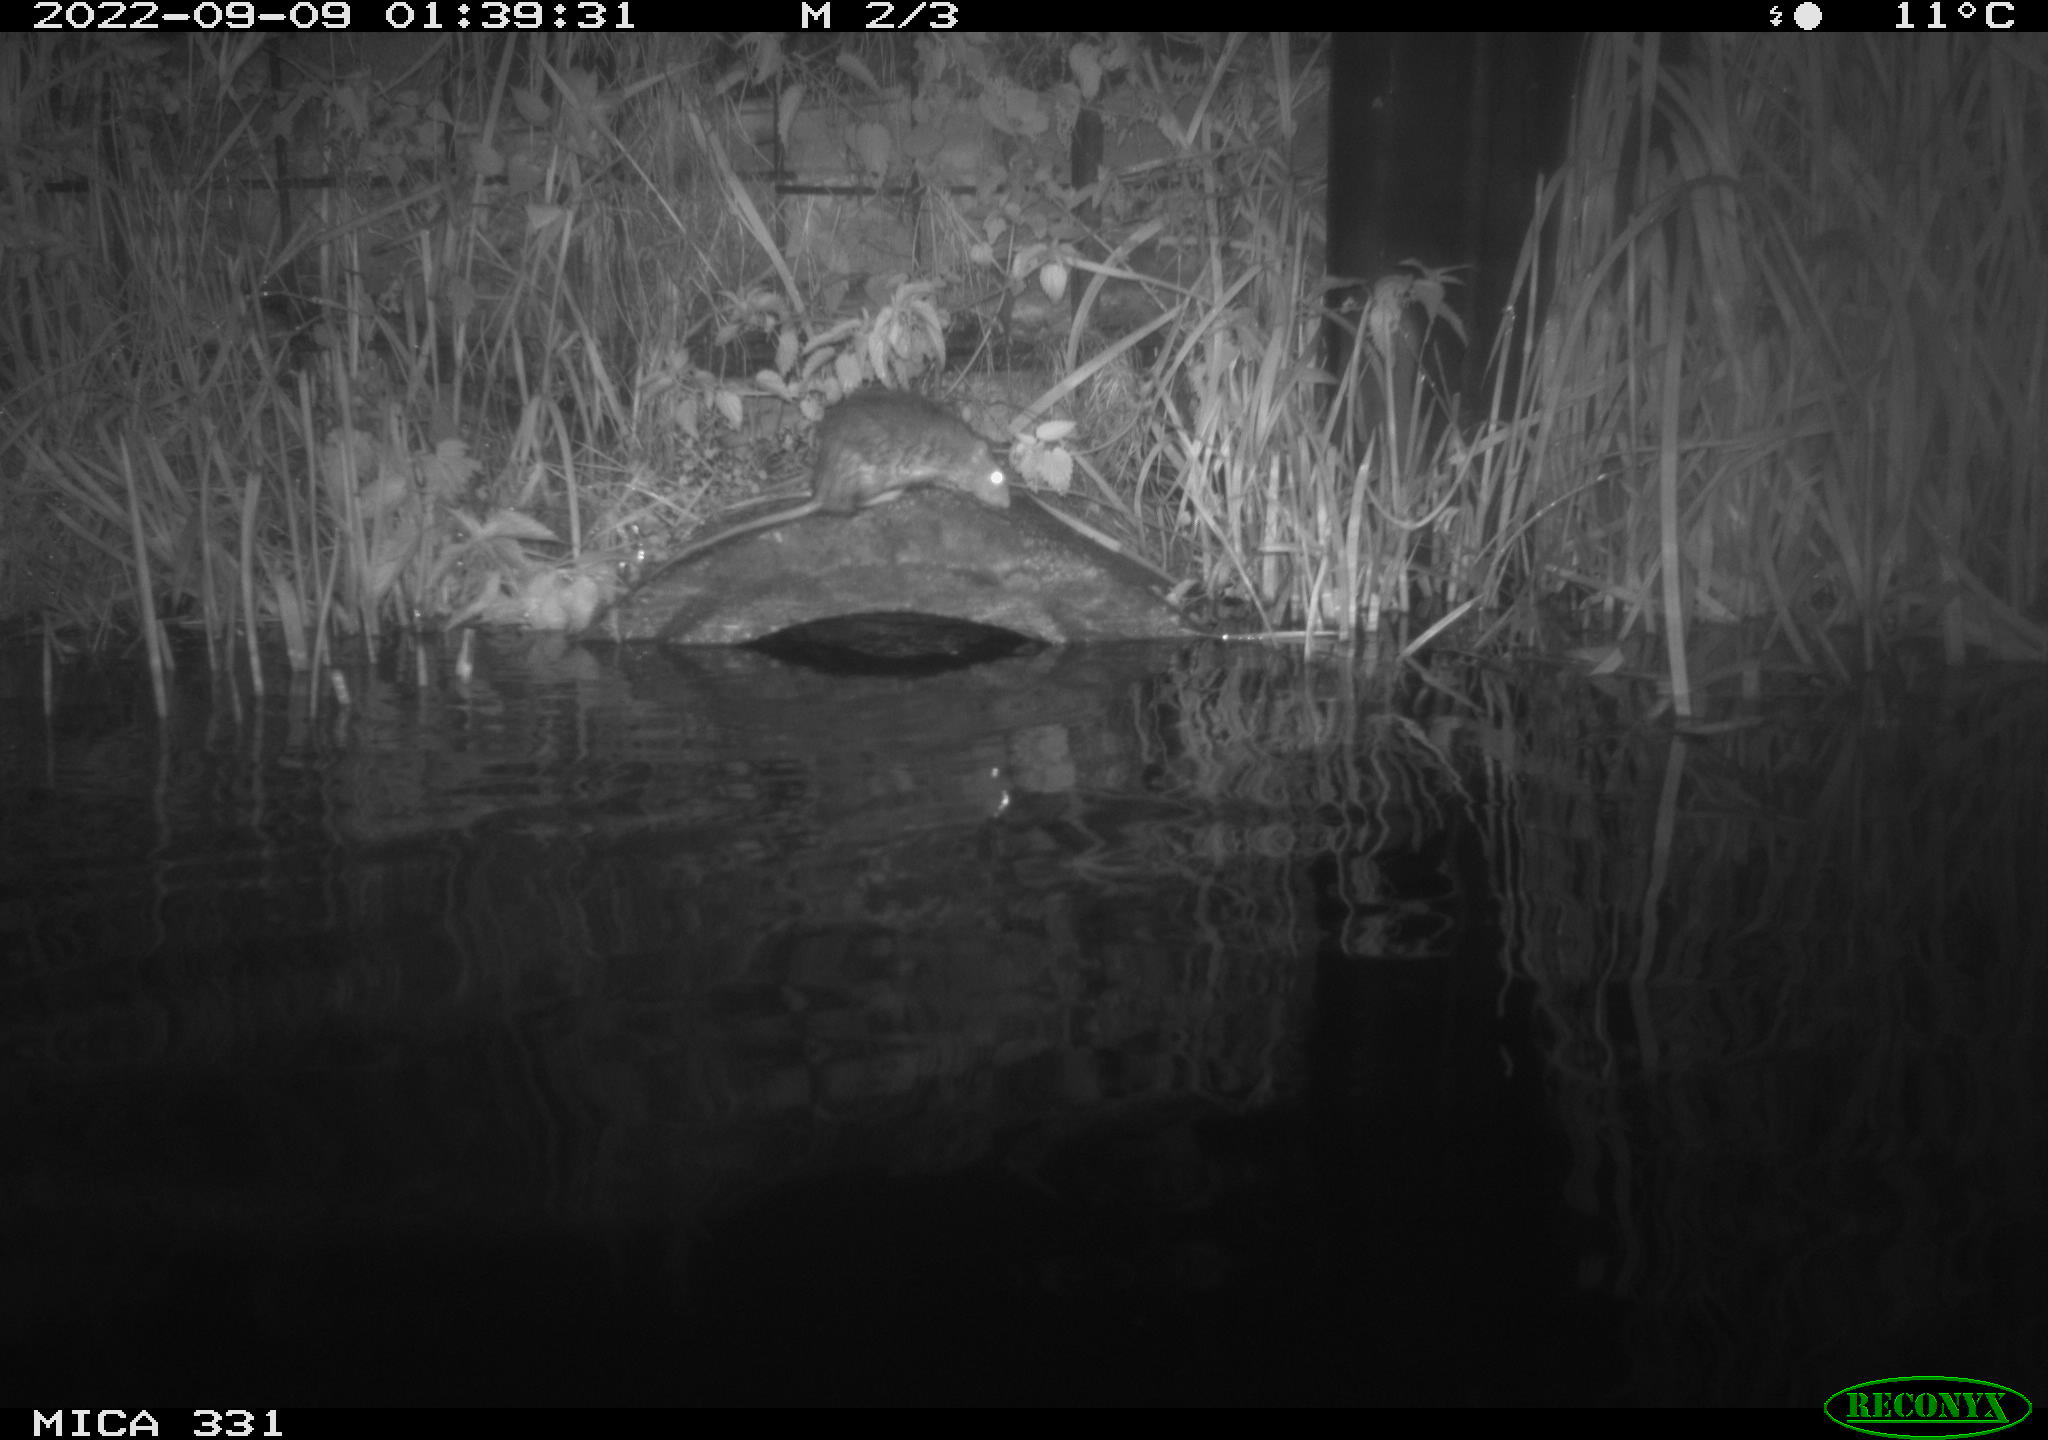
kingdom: Animalia
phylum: Chordata
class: Mammalia
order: Rodentia
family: Muridae
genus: Rattus
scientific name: Rattus norvegicus
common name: Brown rat
